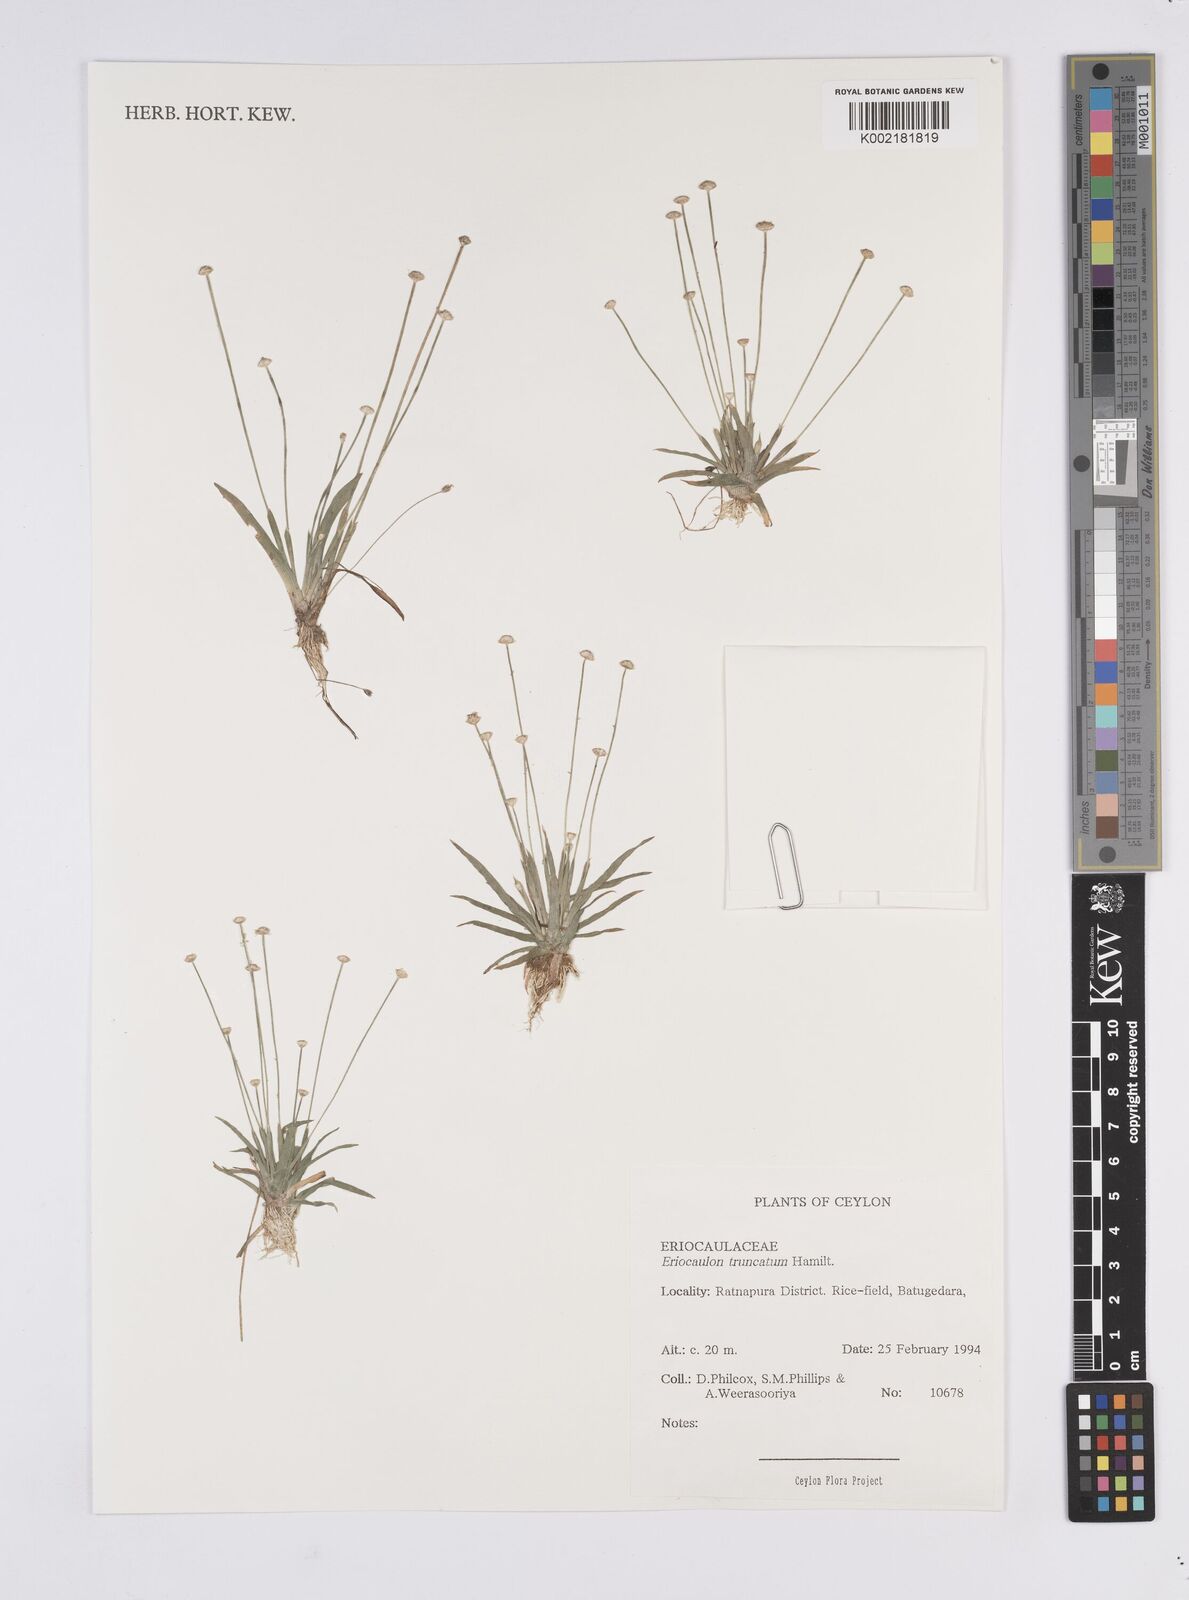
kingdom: Plantae
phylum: Tracheophyta
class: Liliopsida
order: Poales
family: Eriocaulaceae
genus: Eriocaulon
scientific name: Eriocaulon truncatum
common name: Short pipe-wort
